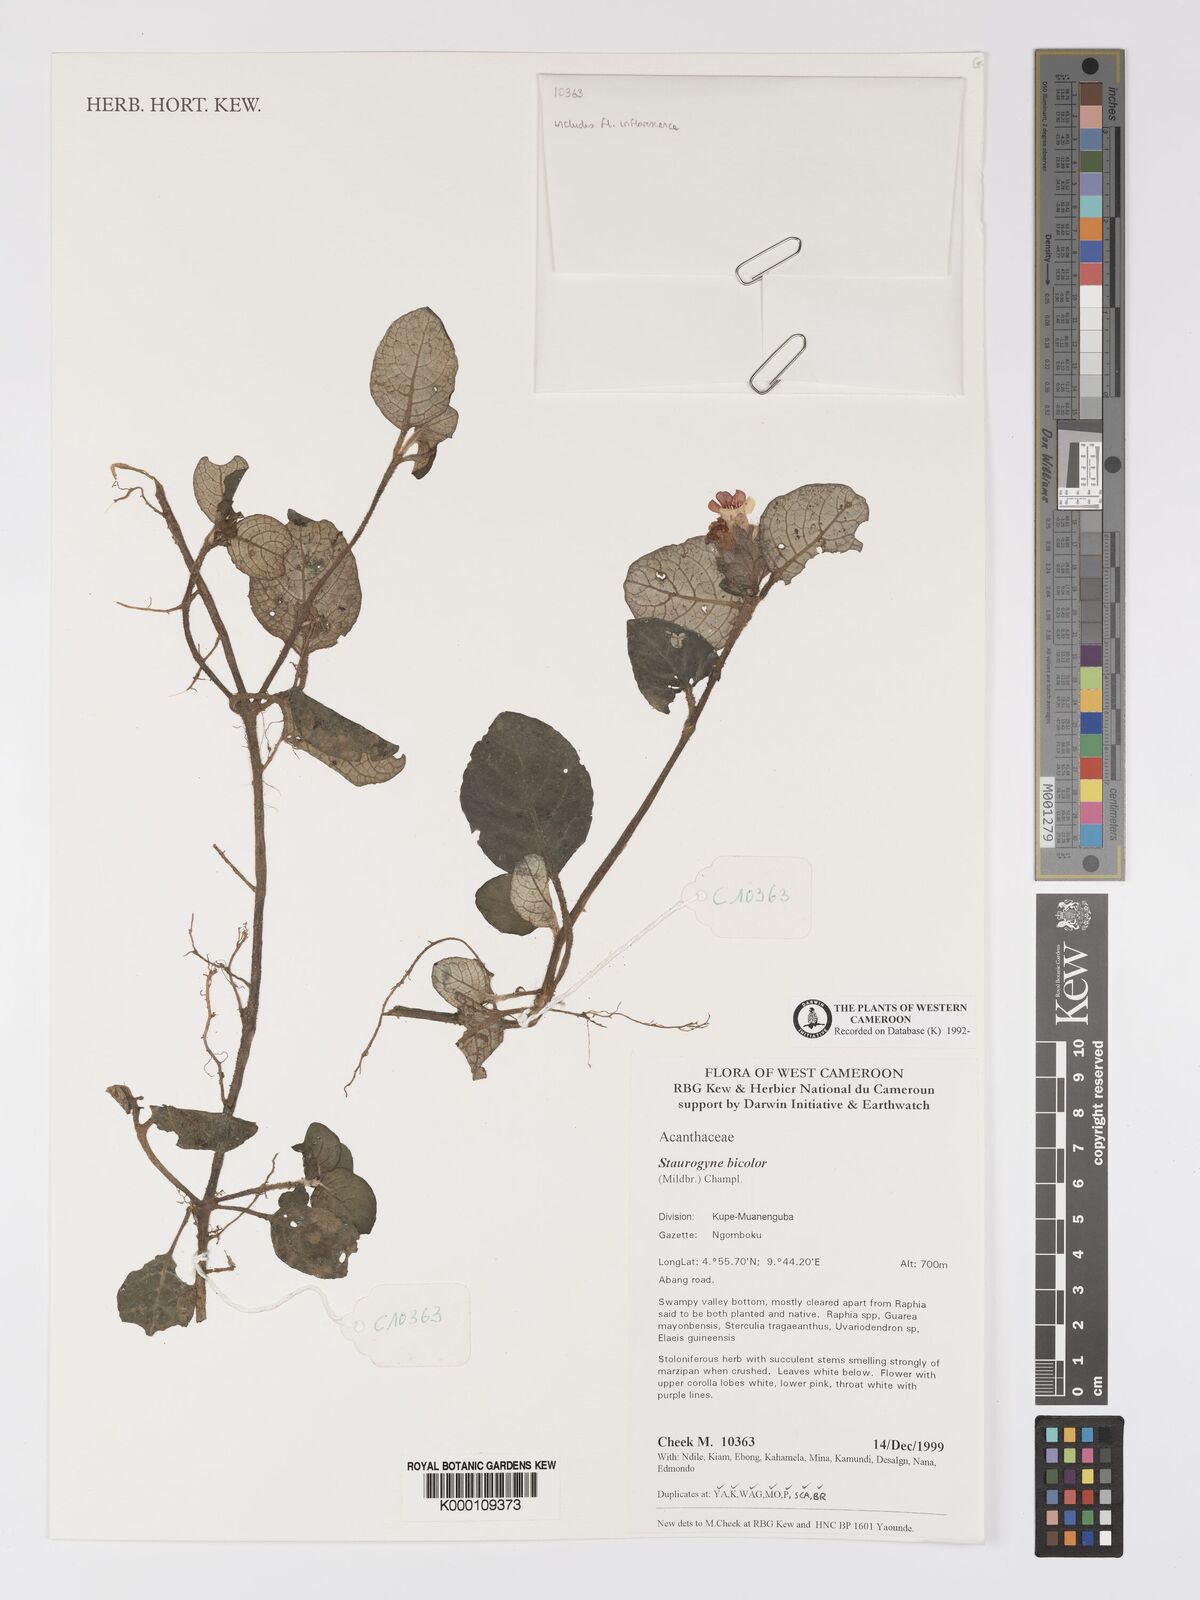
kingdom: Plantae
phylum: Tracheophyta
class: Magnoliopsida
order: Lamiales
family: Acanthaceae
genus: Staurogyne
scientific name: Staurogyne bicolor
